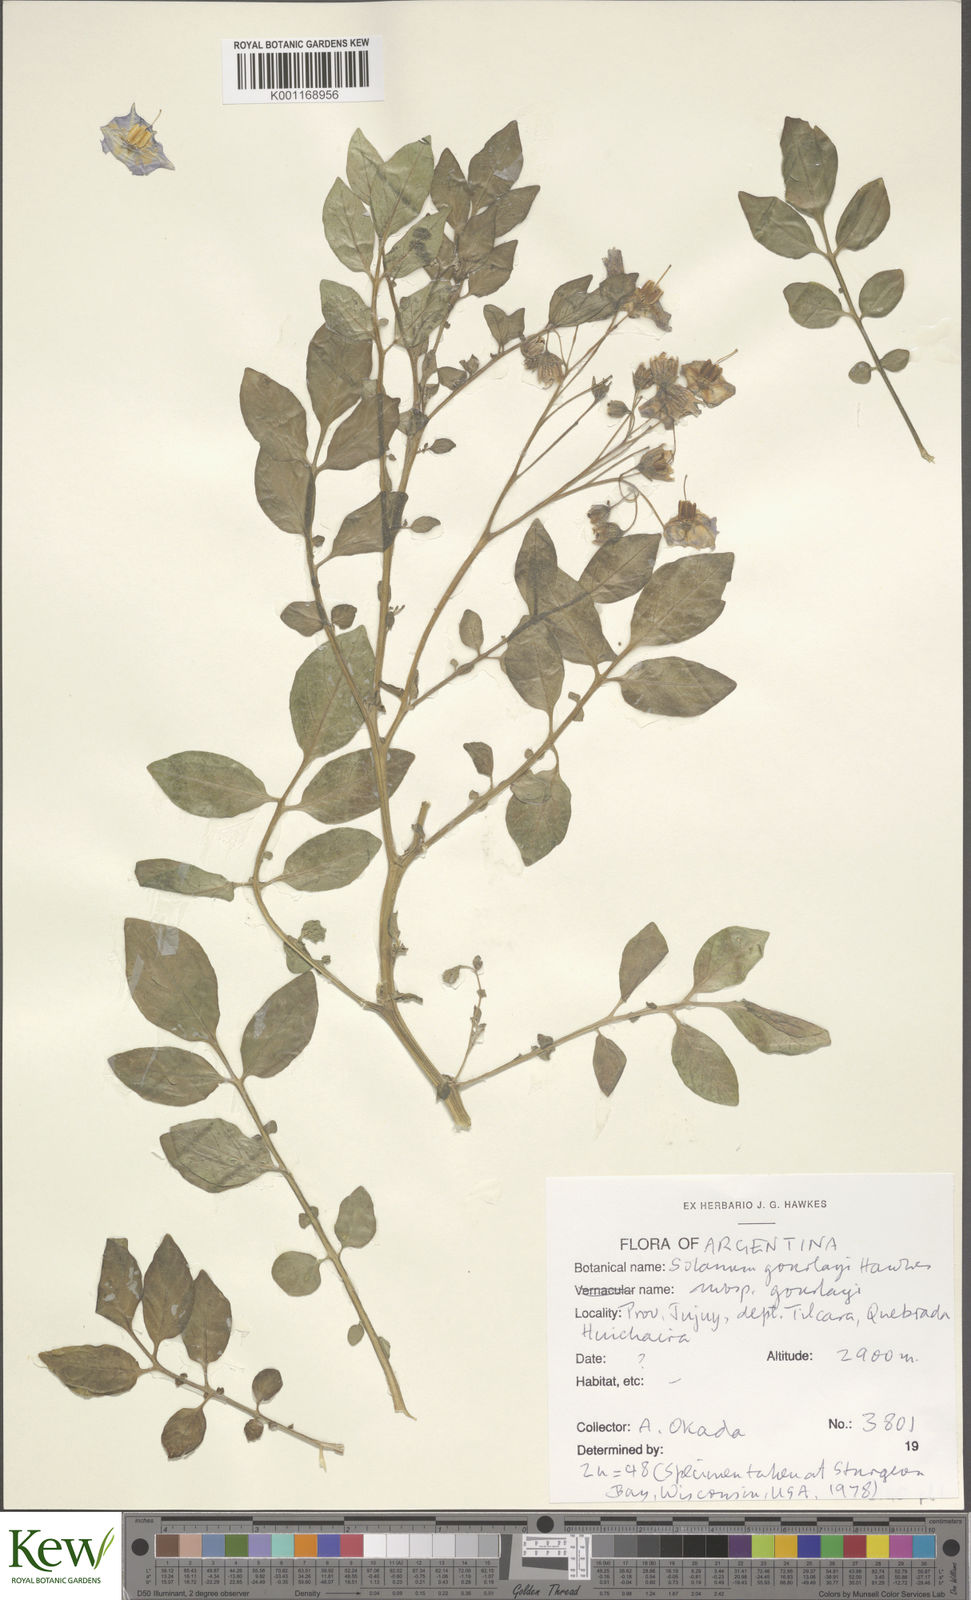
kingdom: Plantae
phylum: Tracheophyta
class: Magnoliopsida
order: Solanales
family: Solanaceae
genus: Solanum
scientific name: Solanum brevicaule
